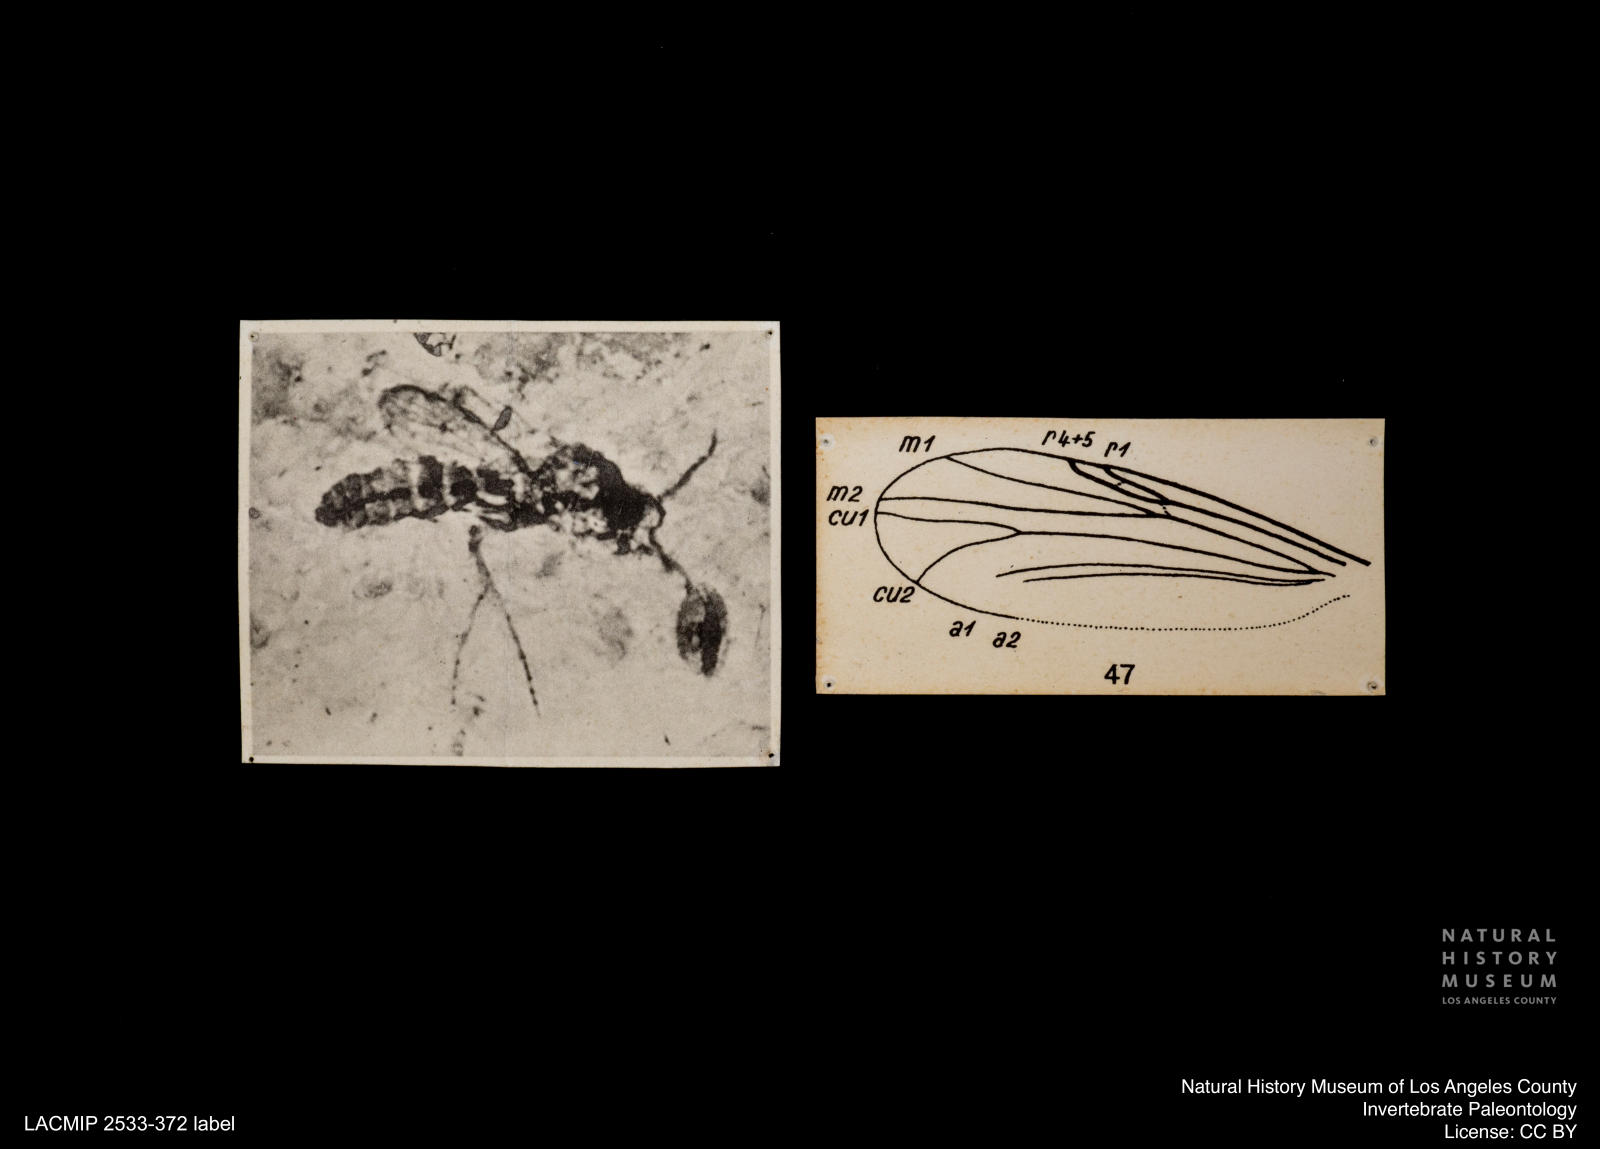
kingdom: Animalia
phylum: Arthropoda
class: Insecta
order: Diptera
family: Ceratopogonidae
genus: Culicoides
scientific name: Culicoides gracilior
